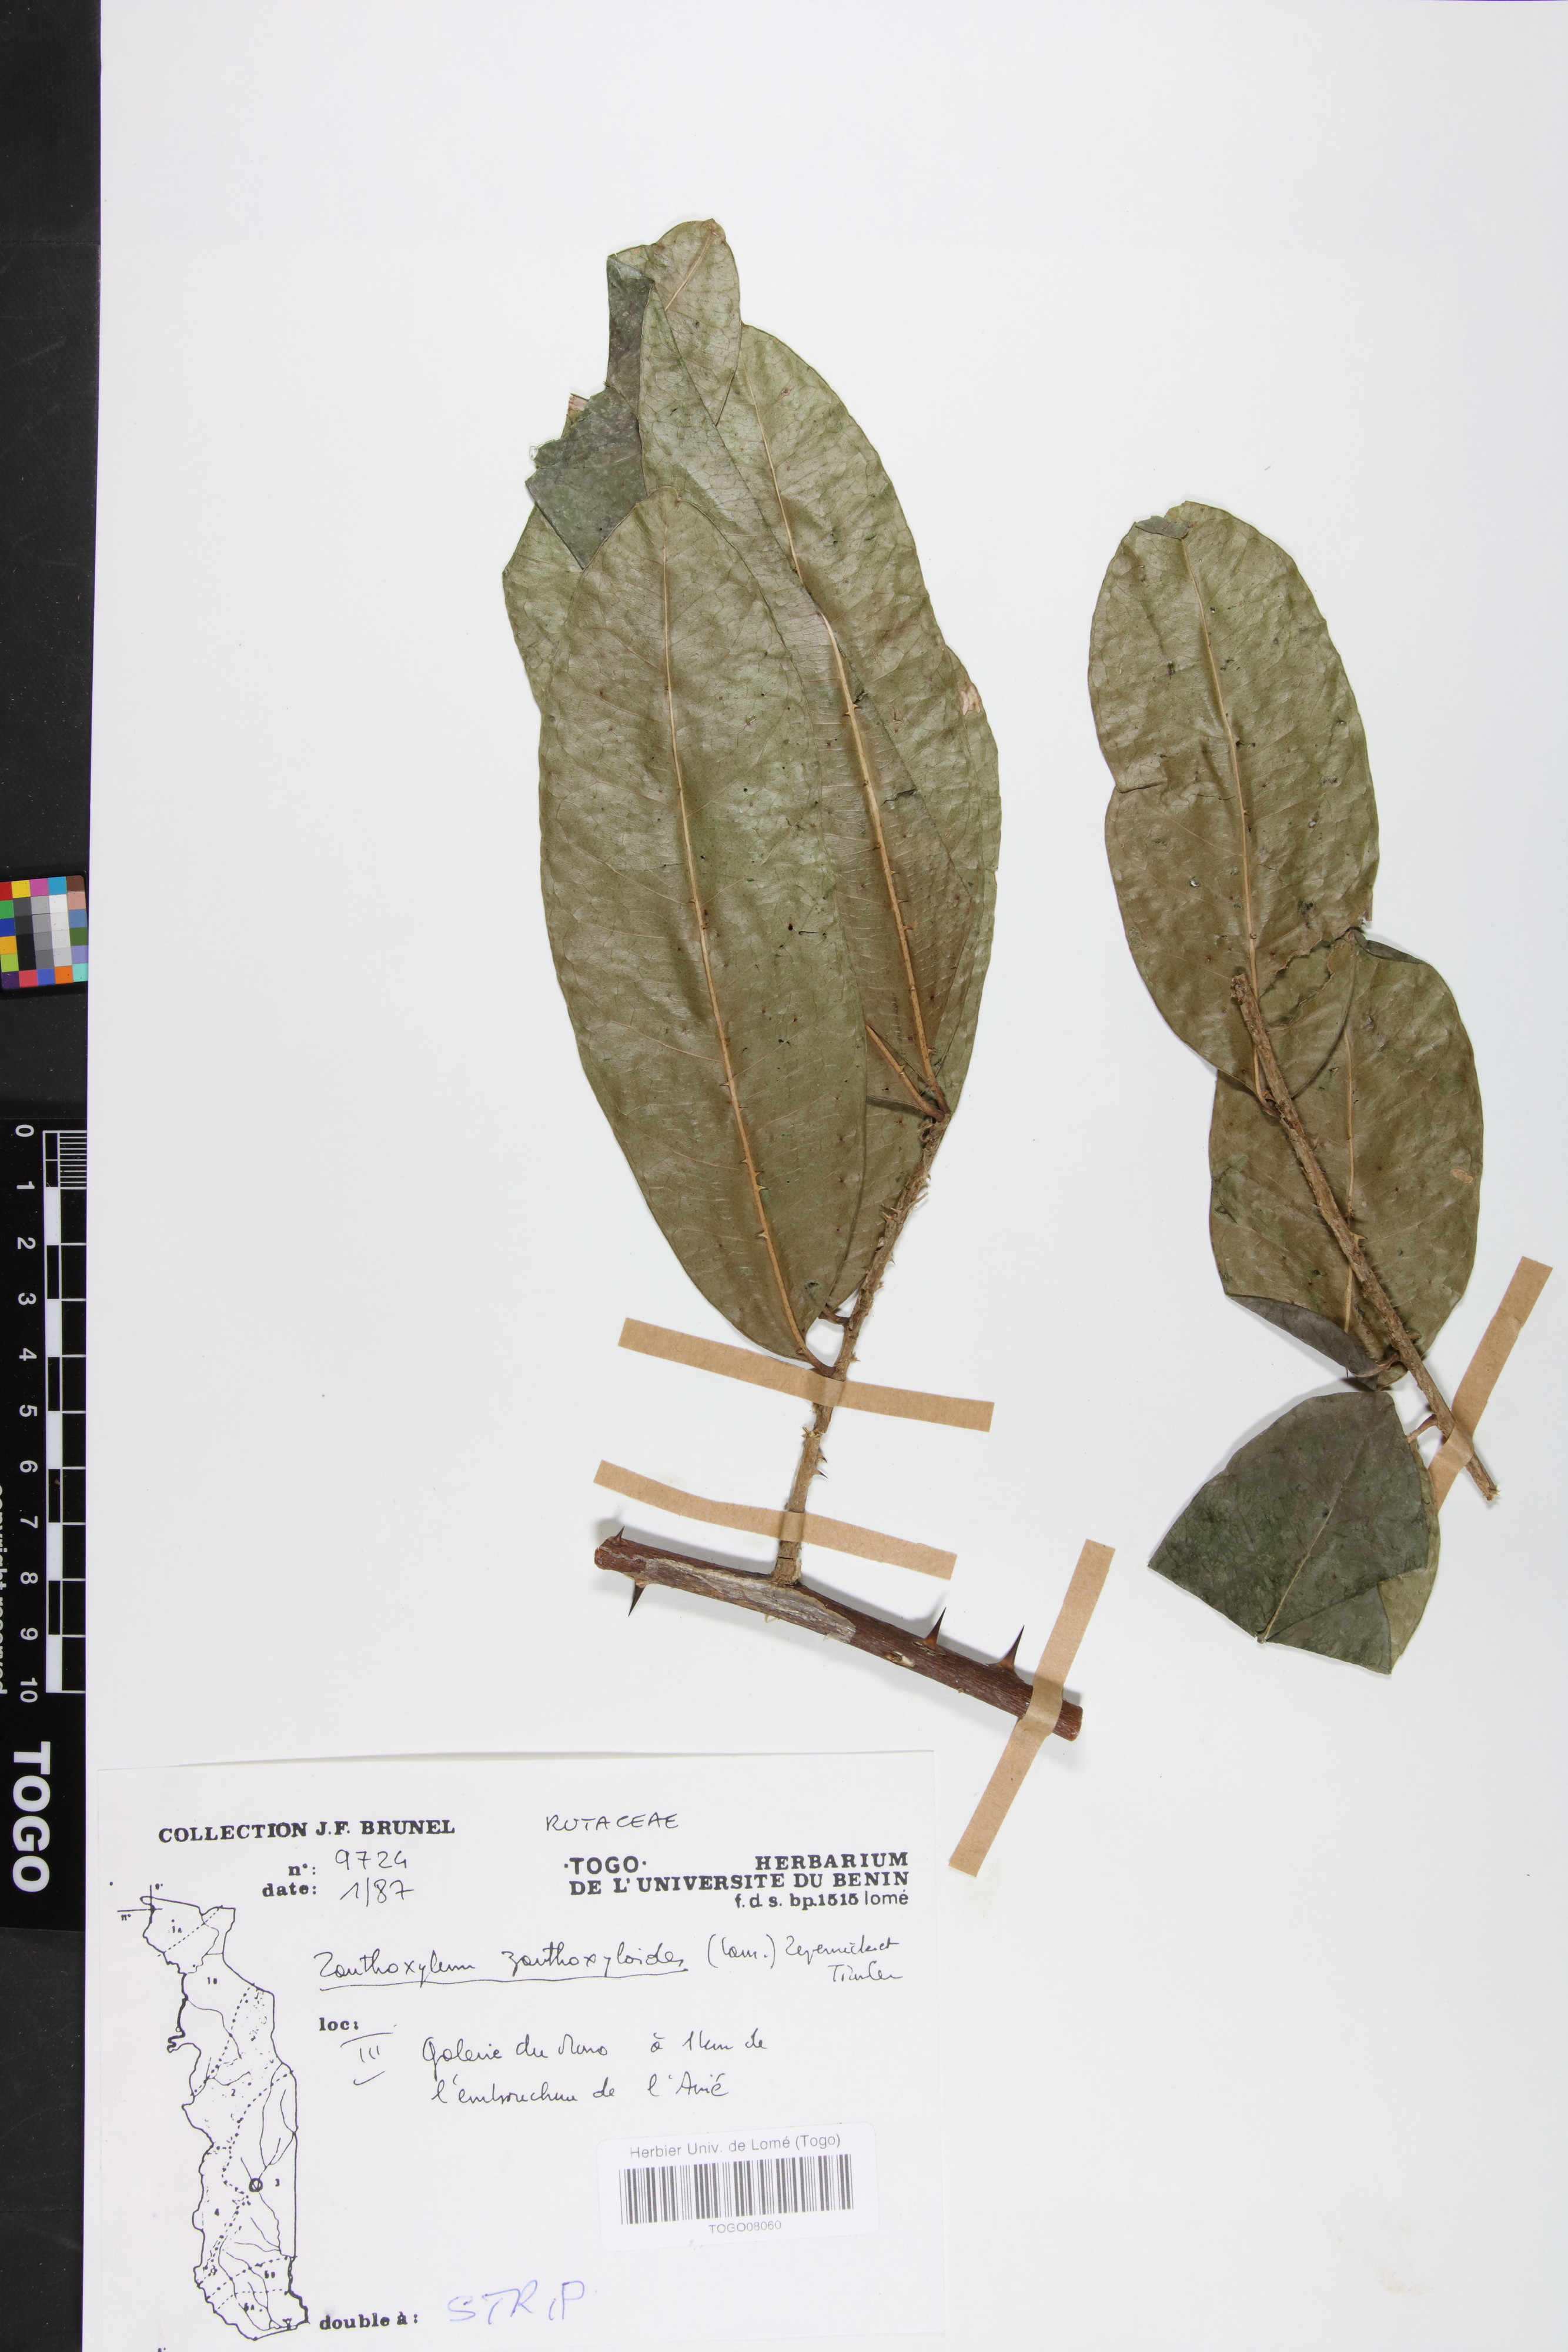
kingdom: Plantae
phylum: Tracheophyta
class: Magnoliopsida
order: Sapindales
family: Rutaceae
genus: Zanthoxylum
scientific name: Zanthoxylum zanthoxyloides
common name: Senegal prickly-ash
